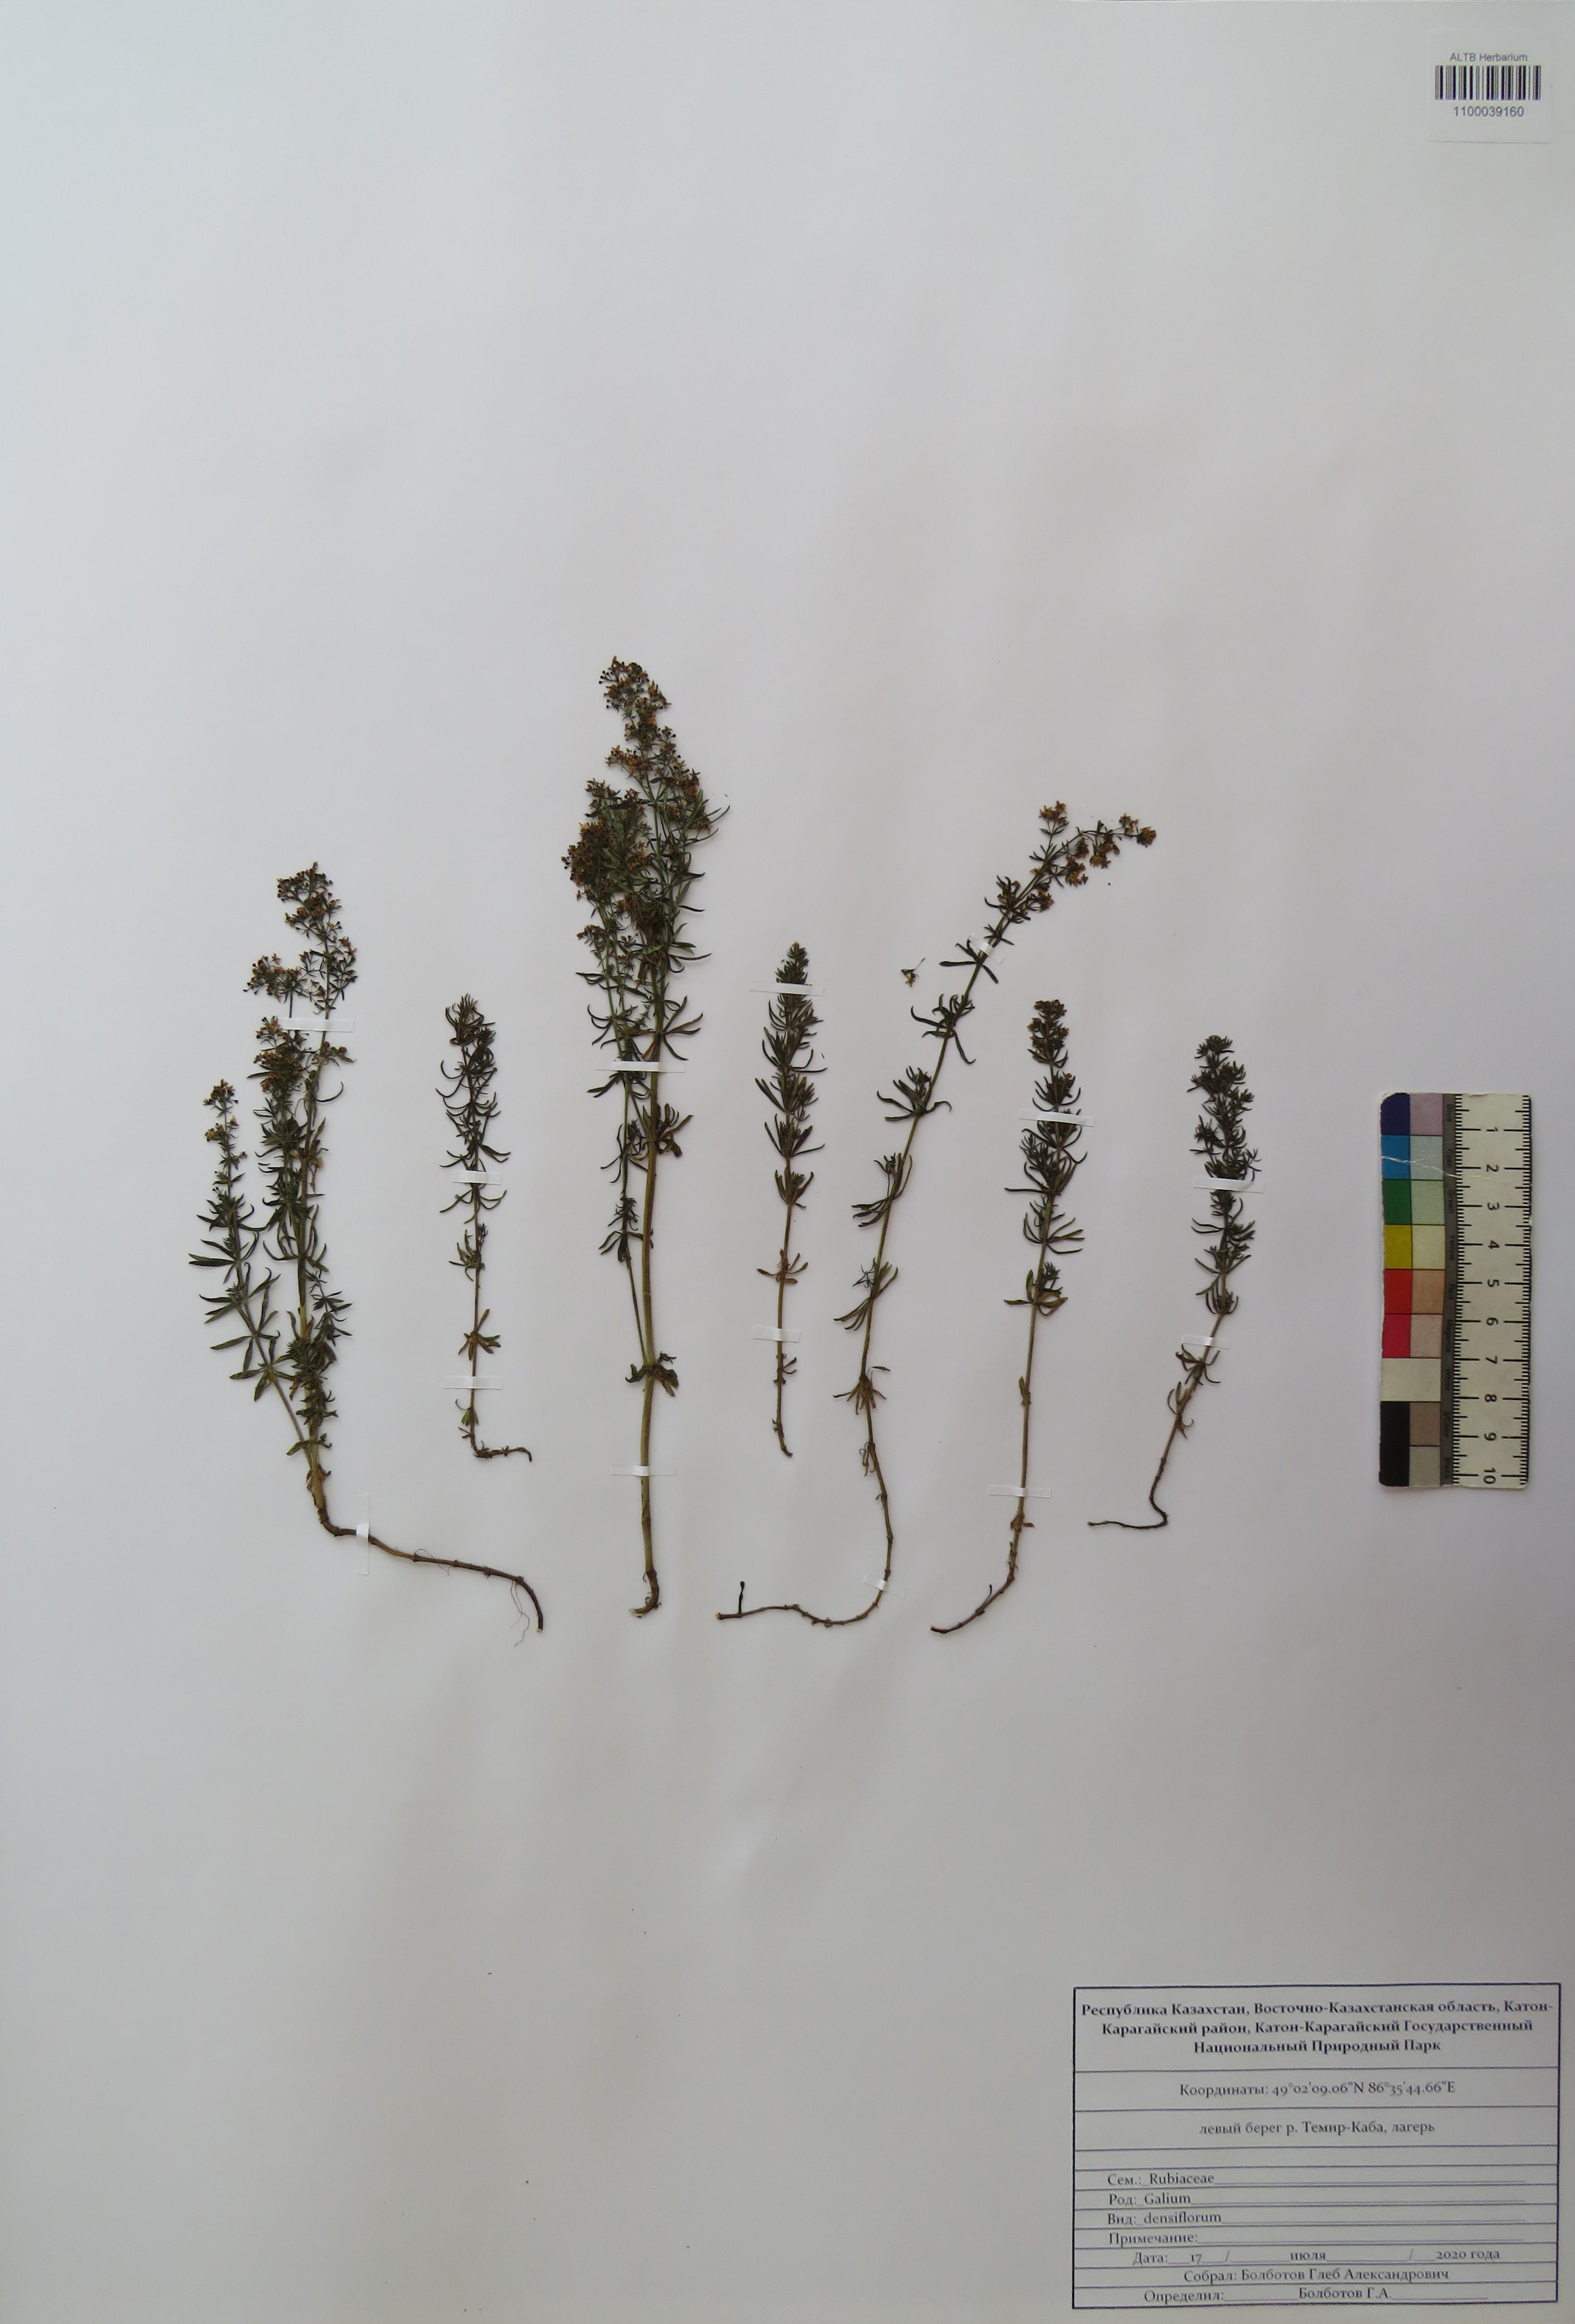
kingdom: Plantae
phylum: Tracheophyta
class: Magnoliopsida
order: Gentianales
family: Rubiaceae
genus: Galium
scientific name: Galium densiflorum
